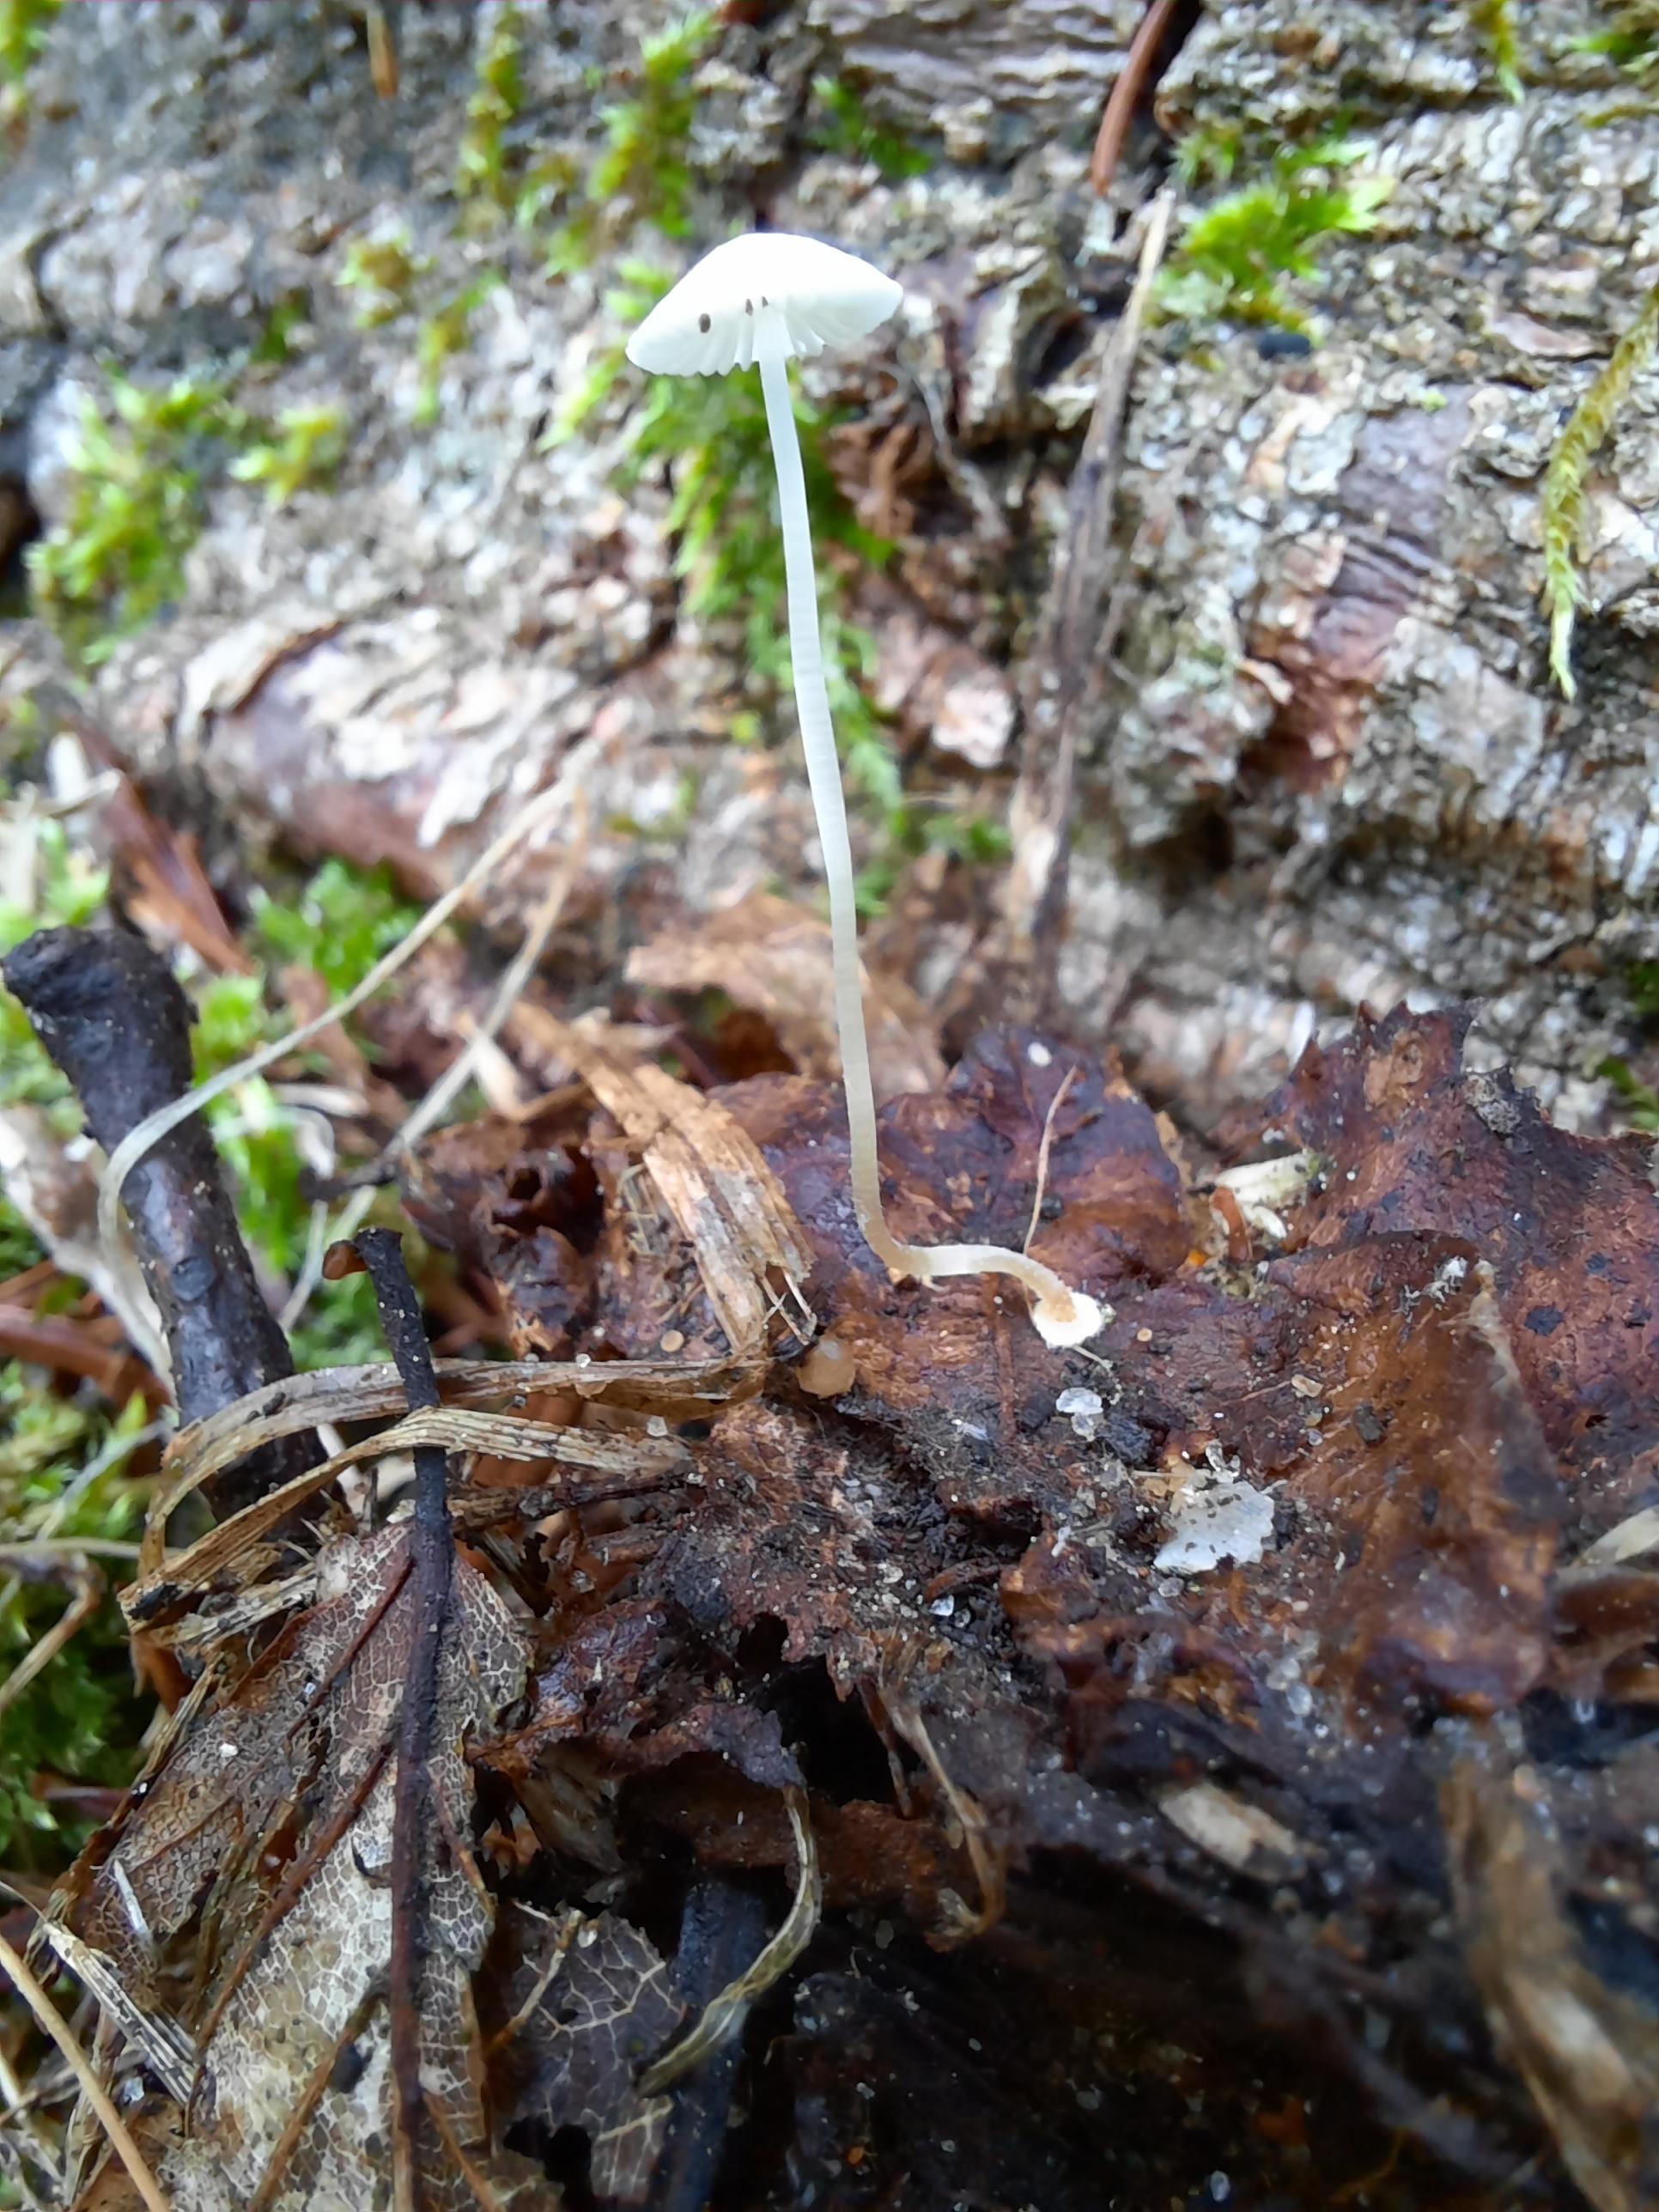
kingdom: Fungi
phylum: Basidiomycota
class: Agaricomycetes
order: Agaricales
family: Mycenaceae
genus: Mycena
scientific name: Mycena stylobates
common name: fureskivet huesvamp
